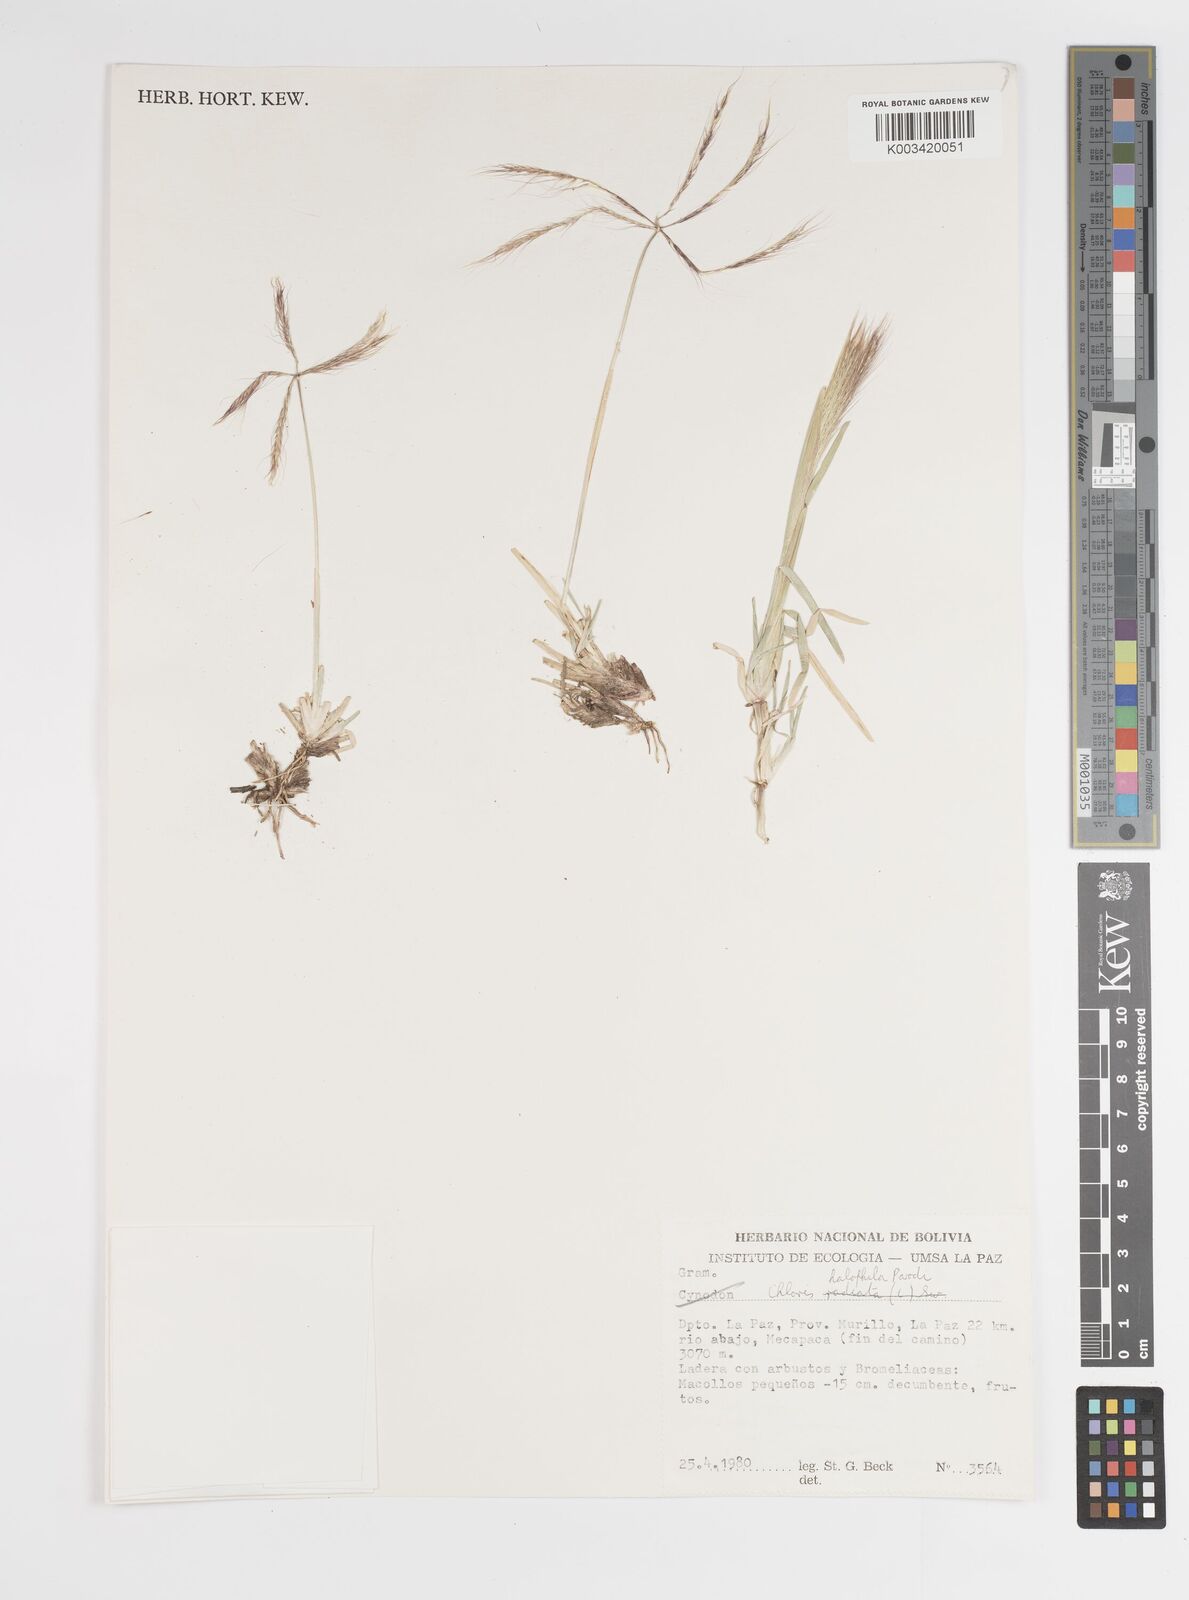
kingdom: Plantae
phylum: Tracheophyta
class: Liliopsida
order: Poales
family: Poaceae
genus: Chloris
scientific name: Chloris halophila
